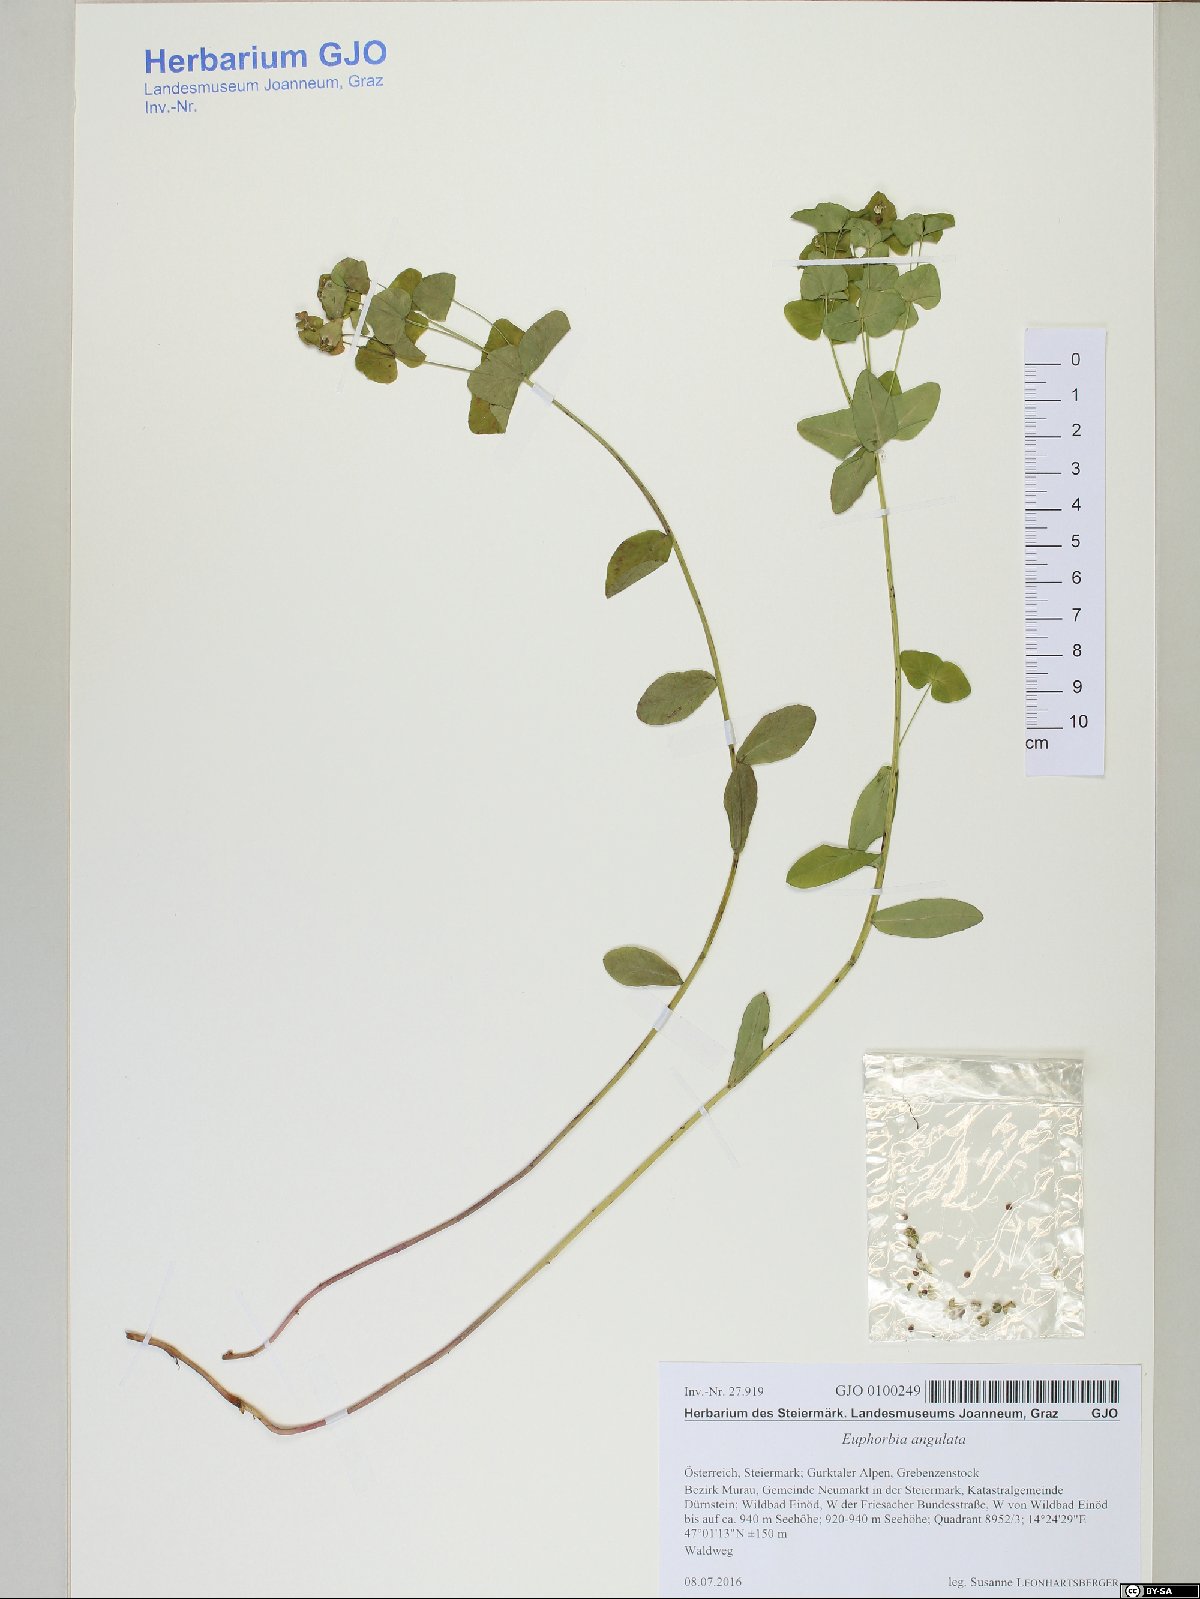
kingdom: Plantae
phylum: Tracheophyta
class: Magnoliopsida
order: Malpighiales
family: Euphorbiaceae
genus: Euphorbia
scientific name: Euphorbia angulata
